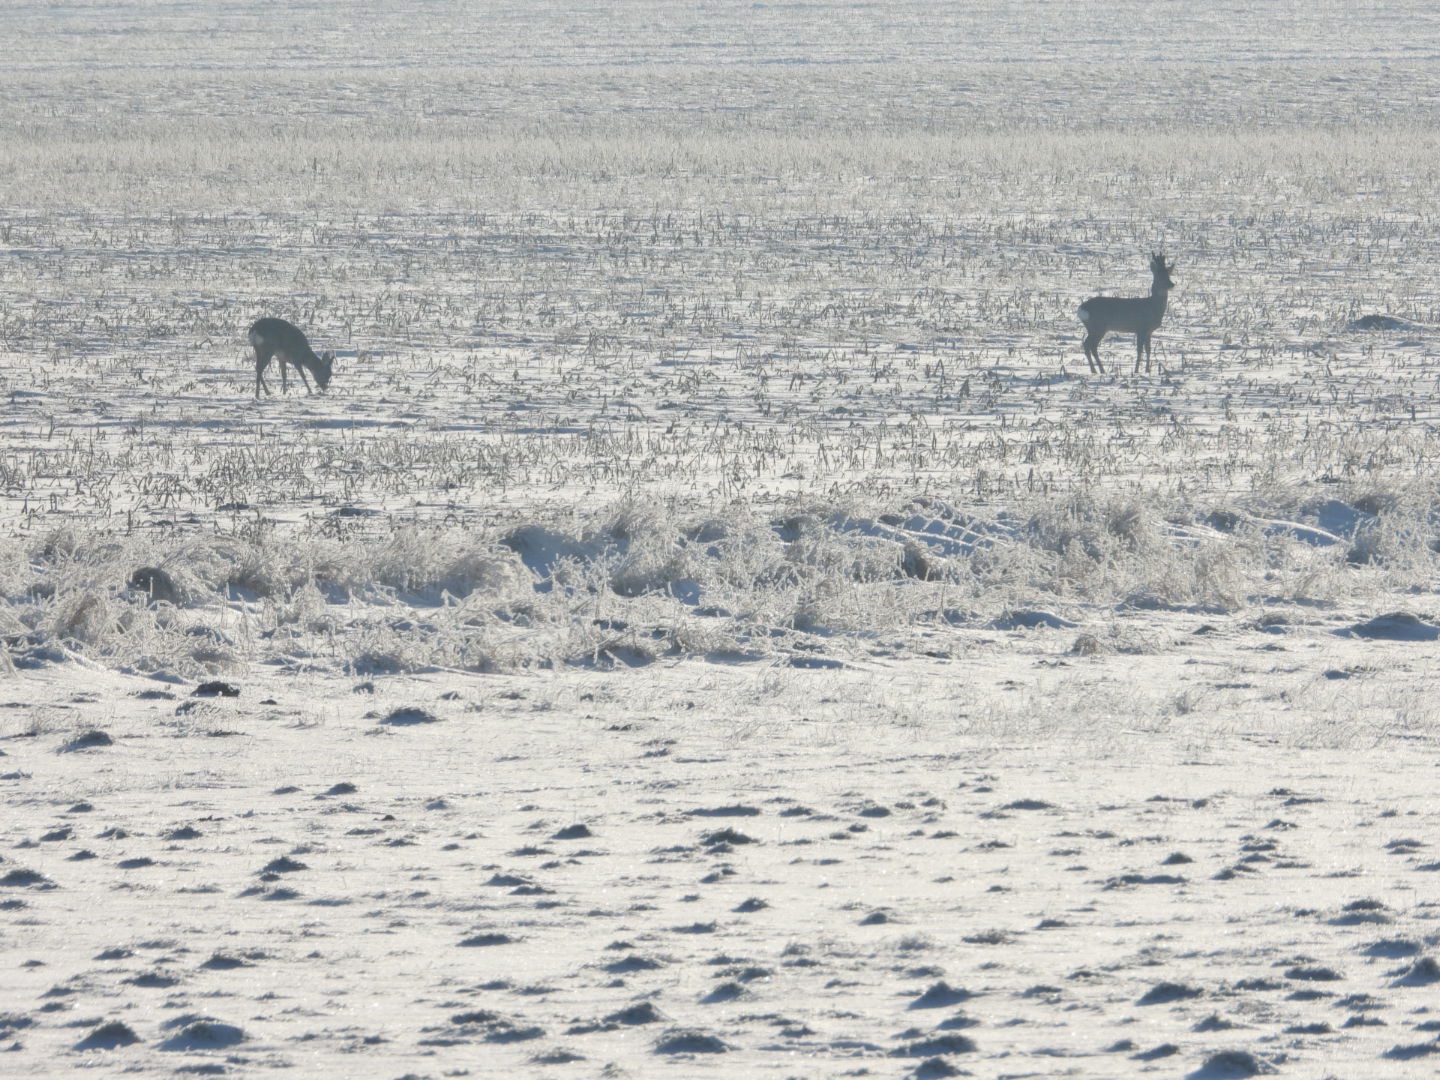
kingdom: Animalia
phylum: Chordata
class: Mammalia
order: Artiodactyla
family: Cervidae
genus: Capreolus
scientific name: Capreolus capreolus
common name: Rådyr
